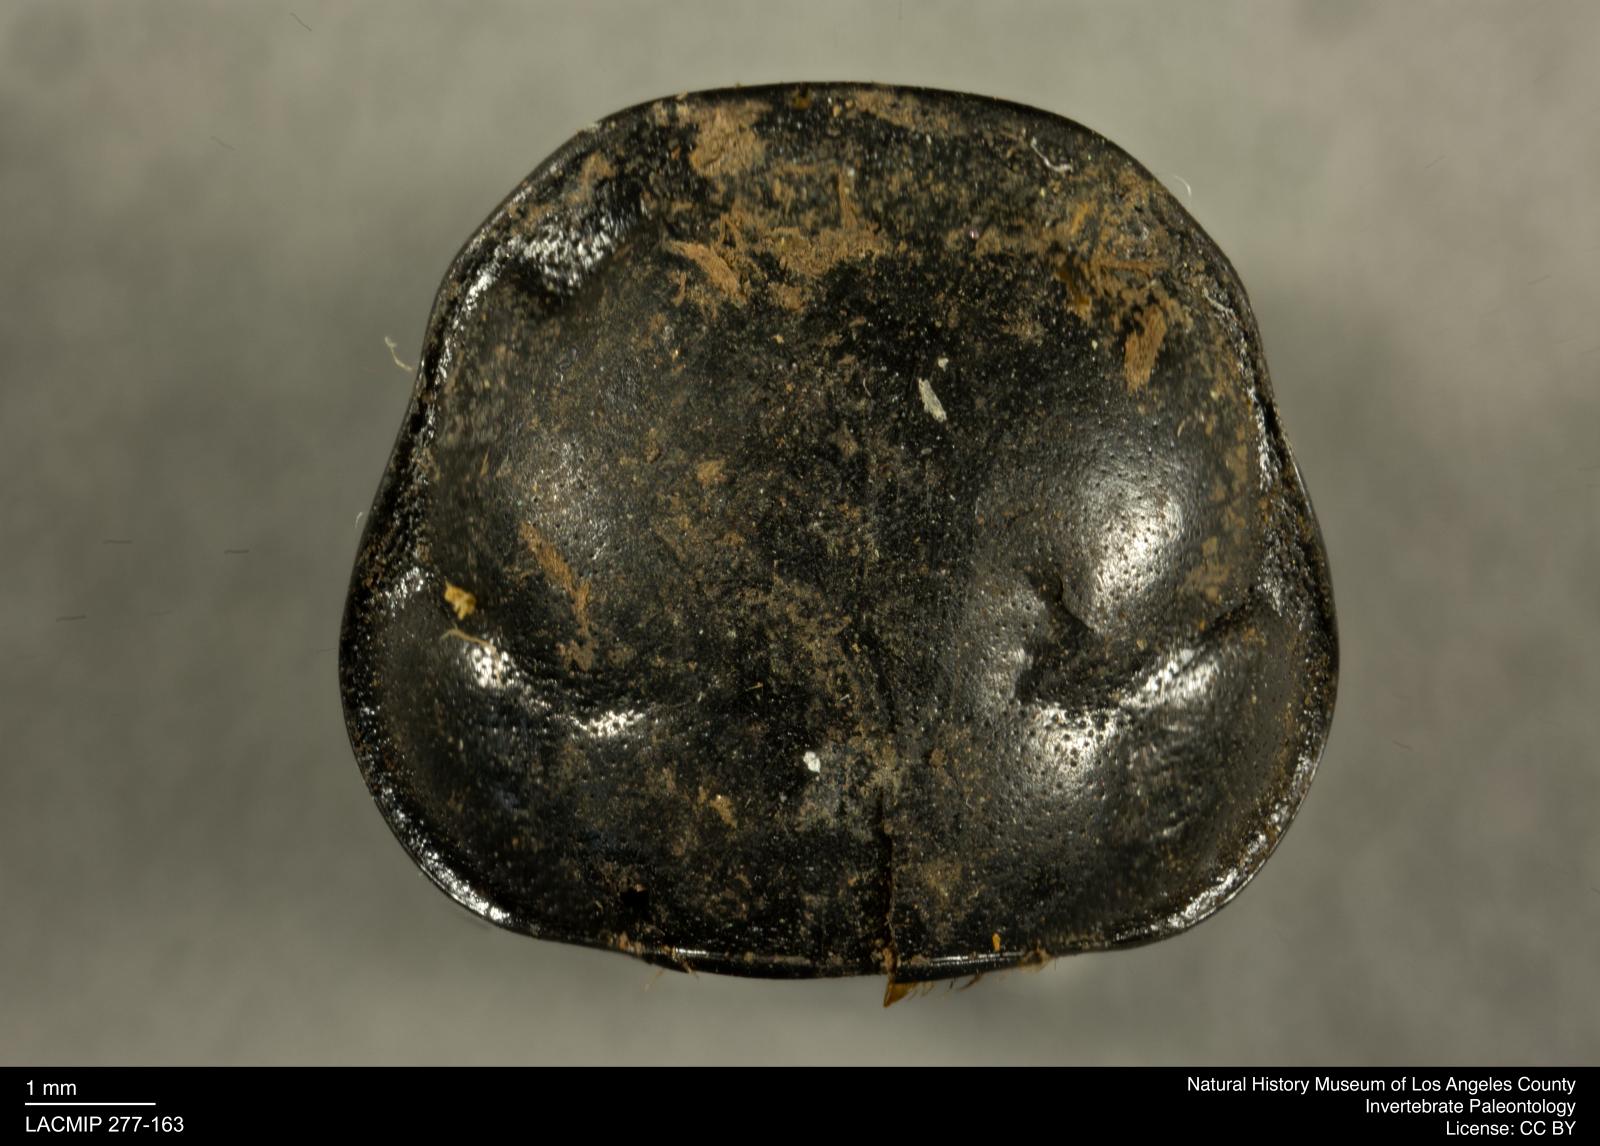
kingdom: Animalia
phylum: Arthropoda
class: Insecta
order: Coleoptera
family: Staphylinidae
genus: Nicrophorus
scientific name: Nicrophorus marginatus
